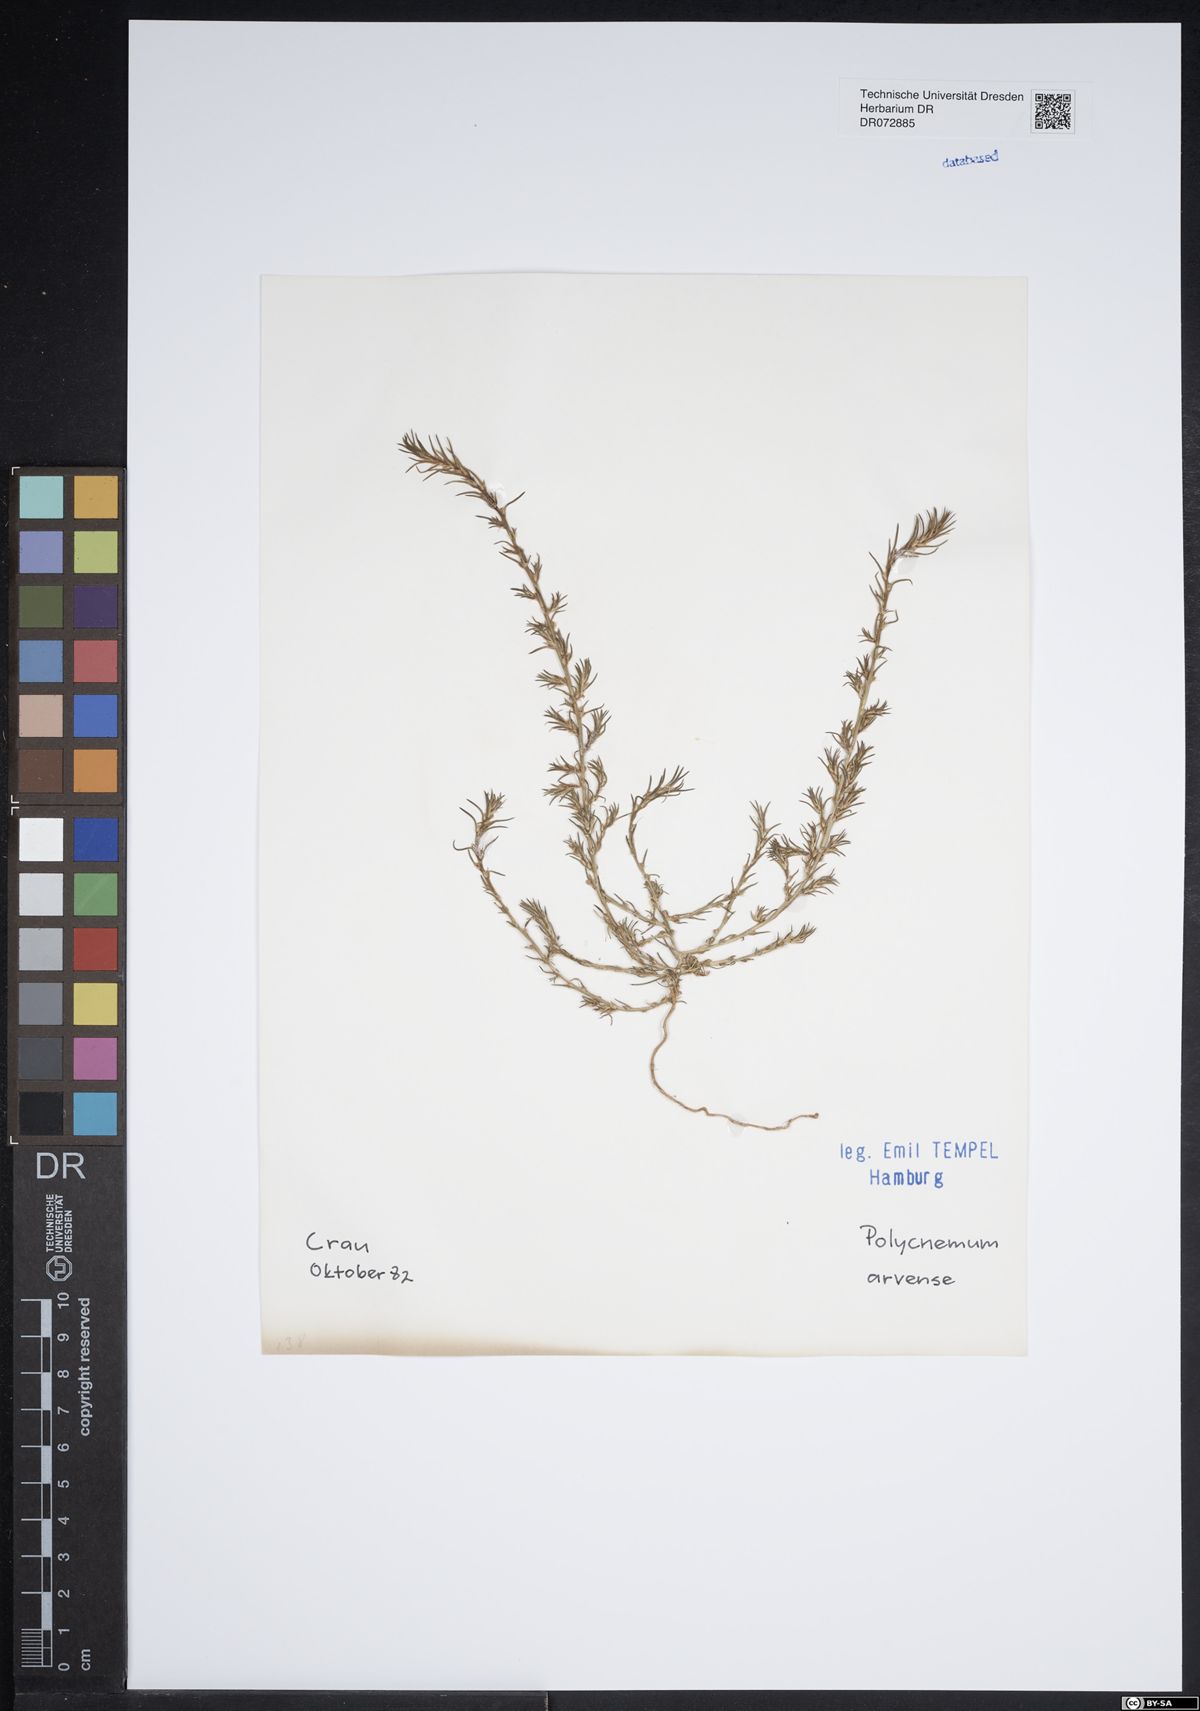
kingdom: Plantae
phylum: Tracheophyta
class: Magnoliopsida
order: Caryophyllales
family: Amaranthaceae
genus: Polycnemum
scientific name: Polycnemum arvense
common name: Soft needleleaf
